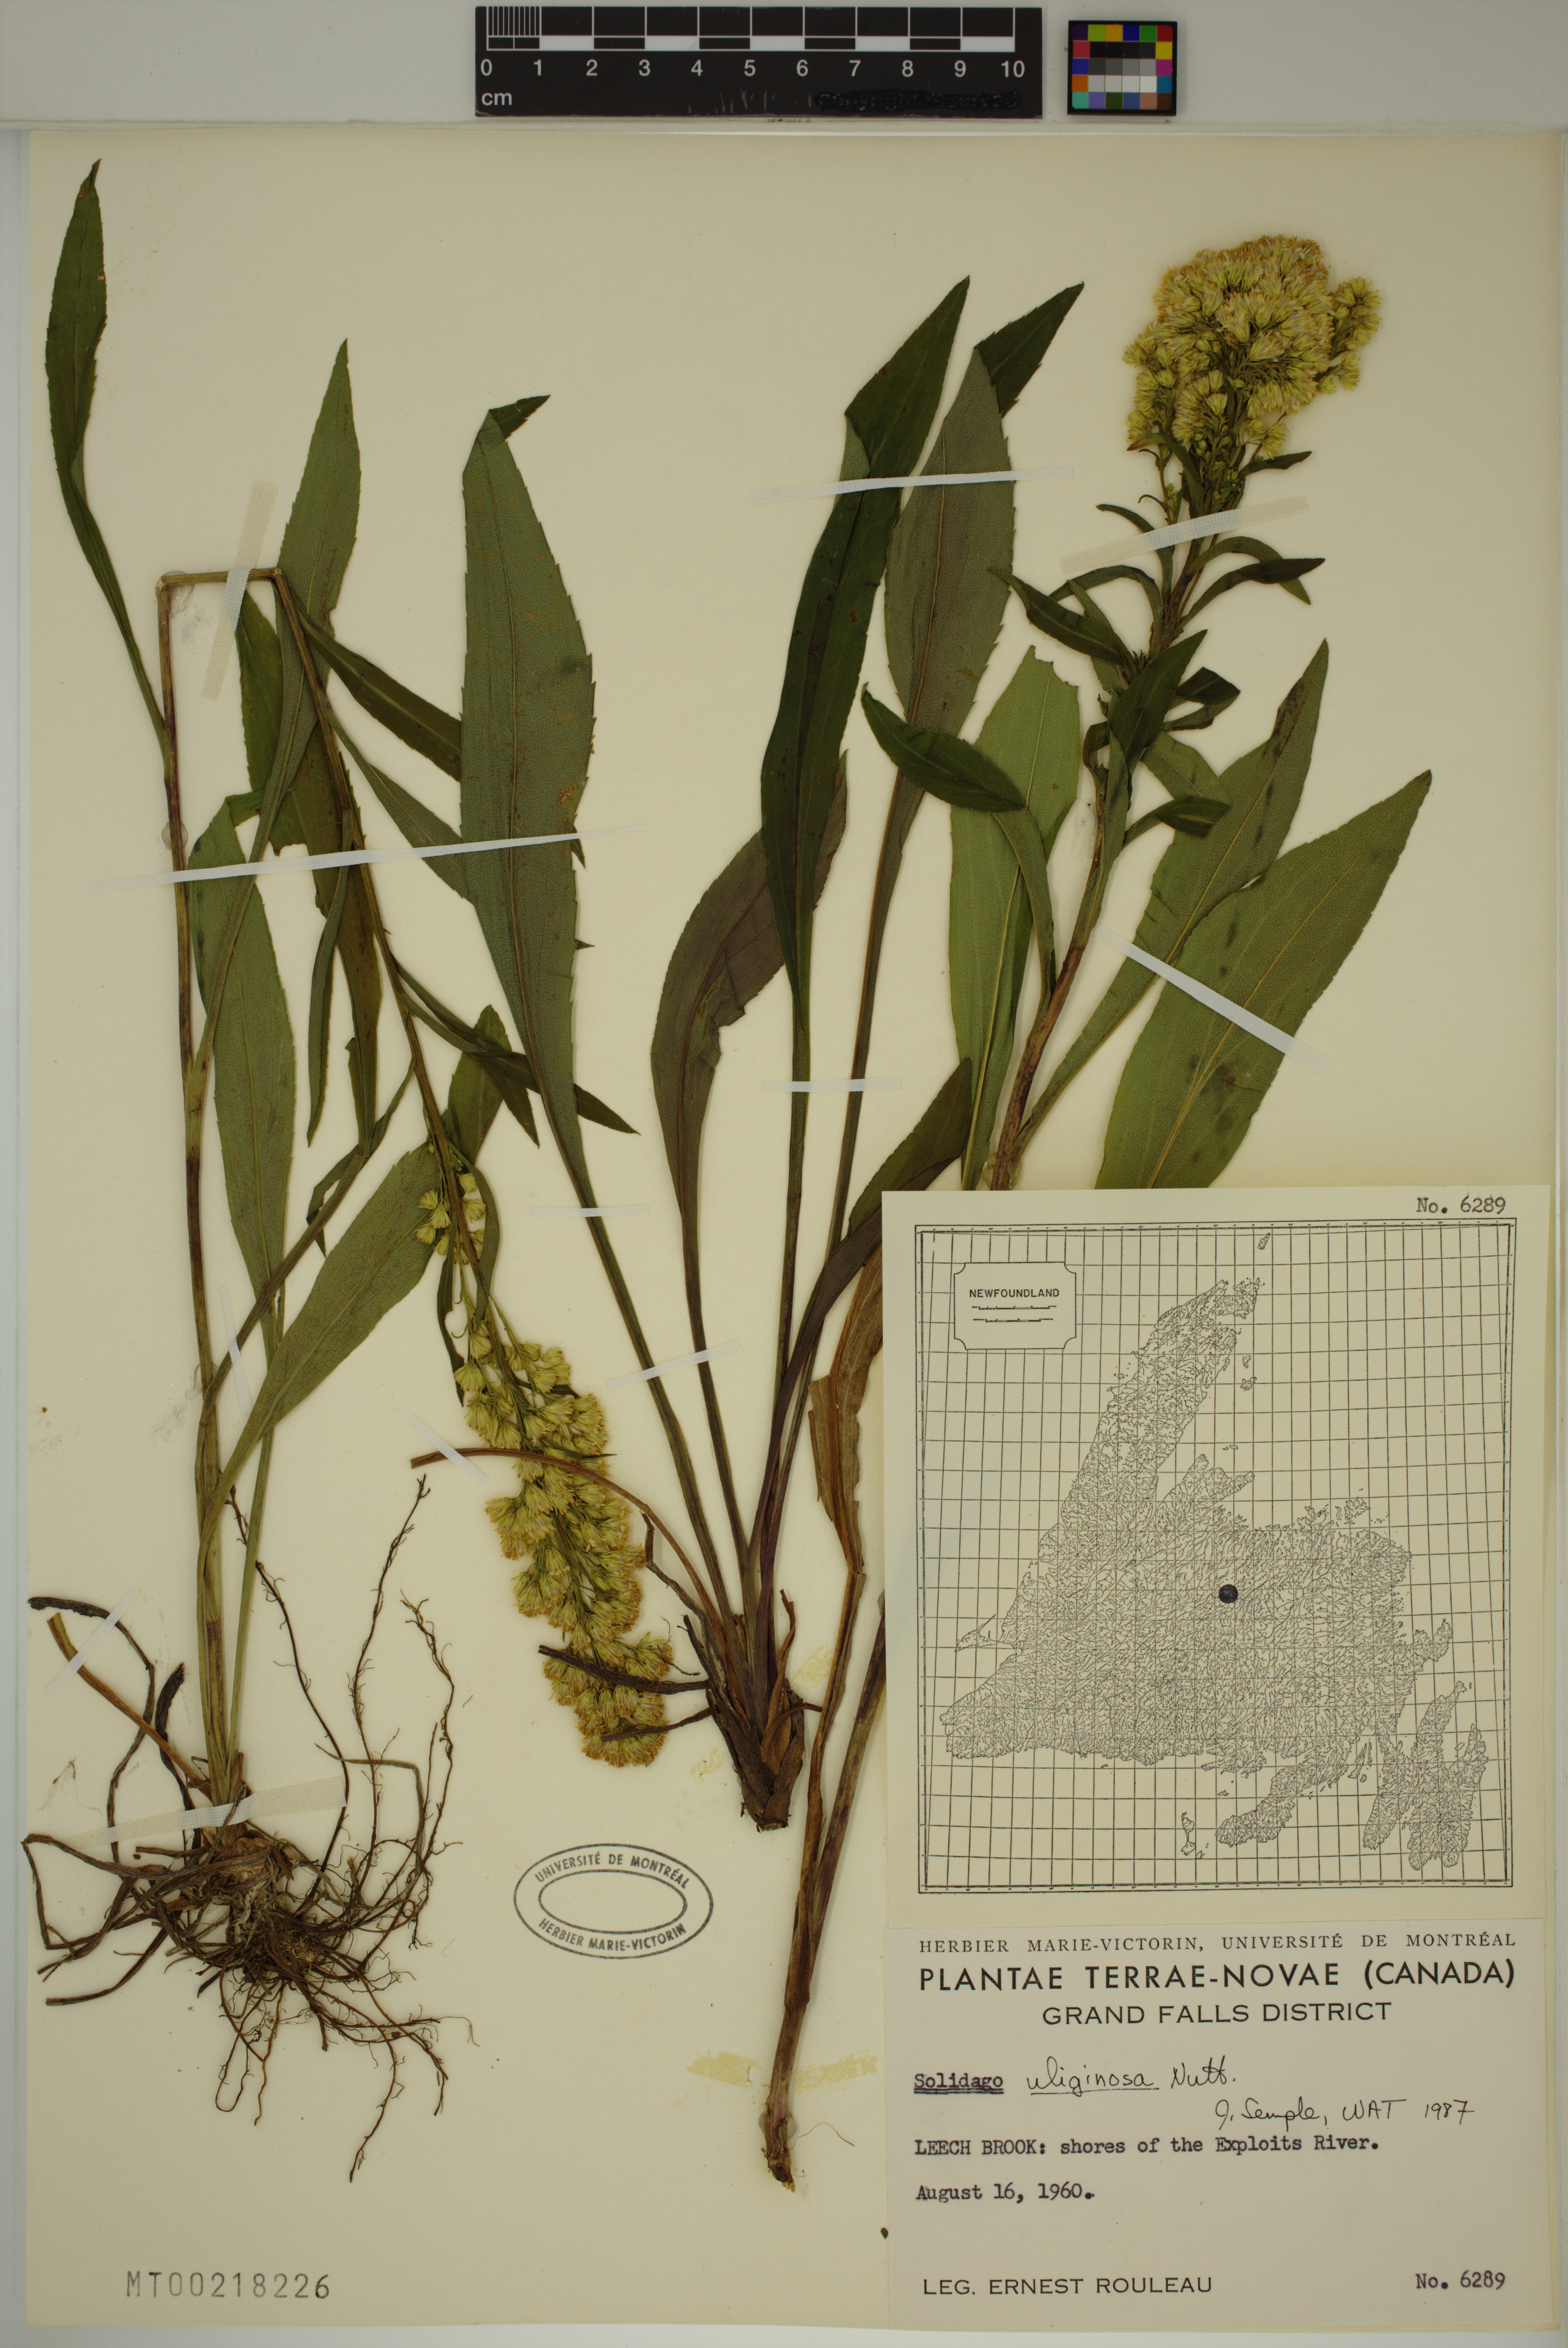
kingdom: Plantae
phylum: Tracheophyta
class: Magnoliopsida
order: Asterales
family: Asteraceae
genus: Solidago
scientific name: Solidago uliginosa
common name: Bog goldenrod
